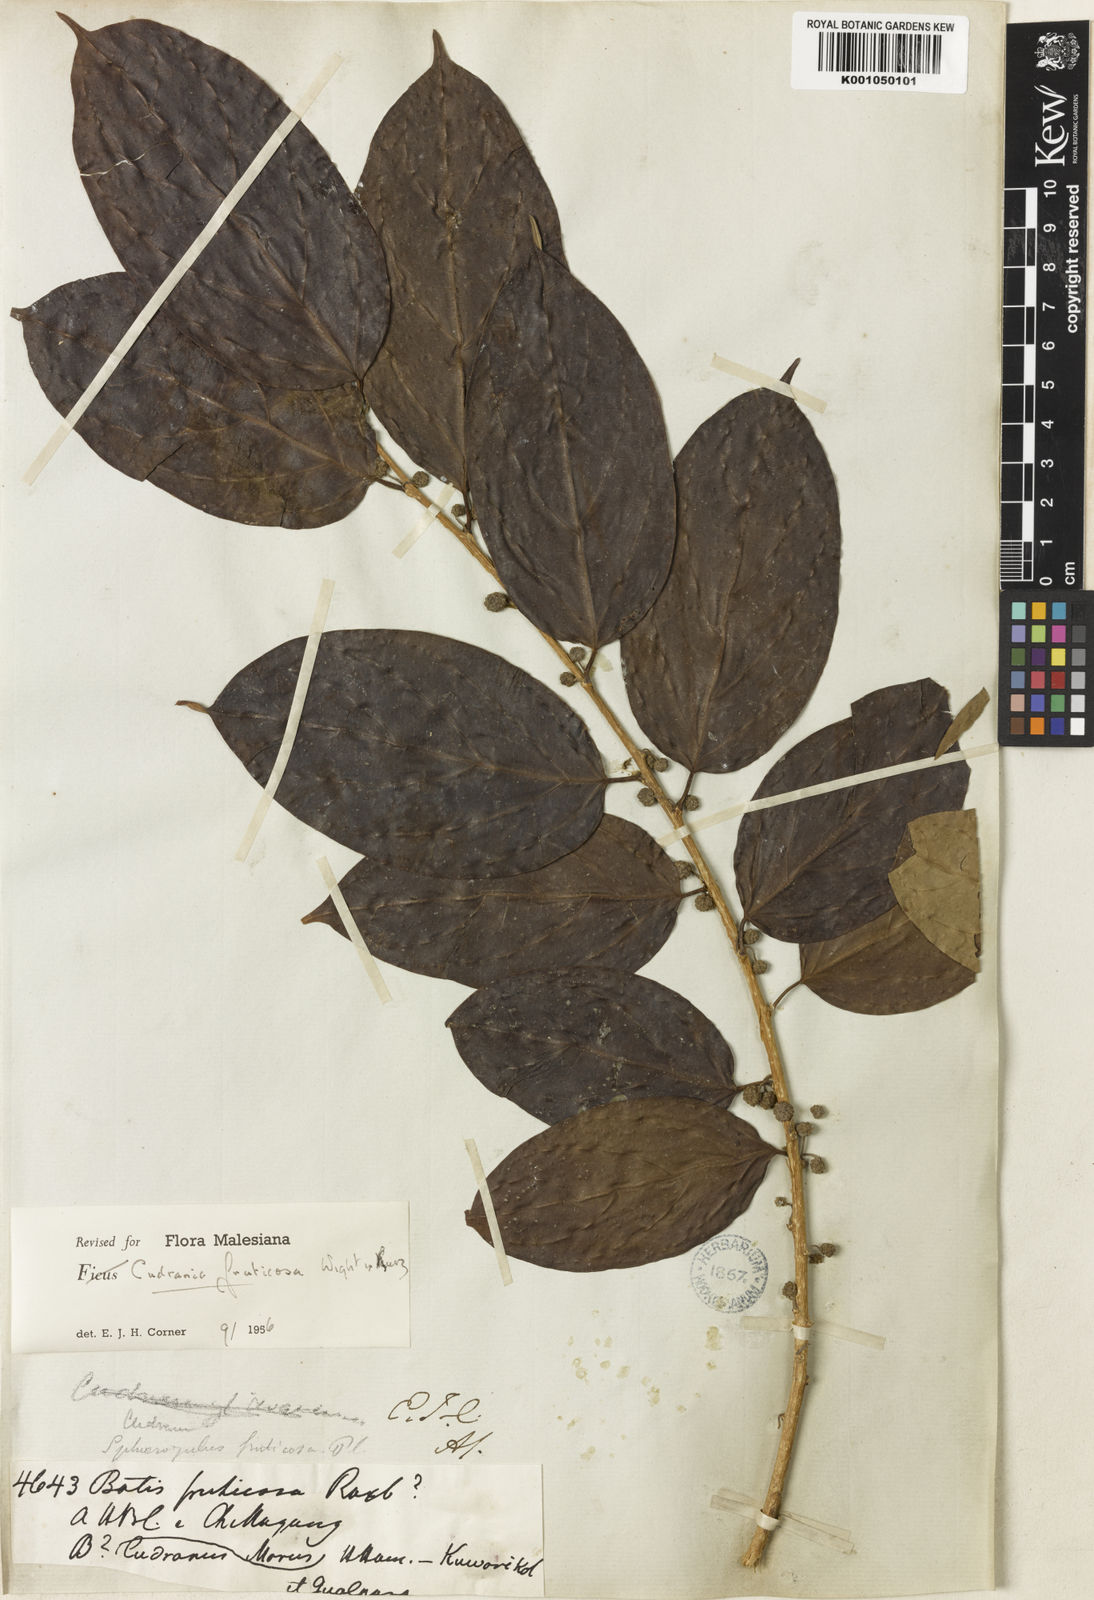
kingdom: Plantae
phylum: Tracheophyta
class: Magnoliopsida
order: Rosales
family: Moraceae
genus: Maclura
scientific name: Maclura fruticosa
